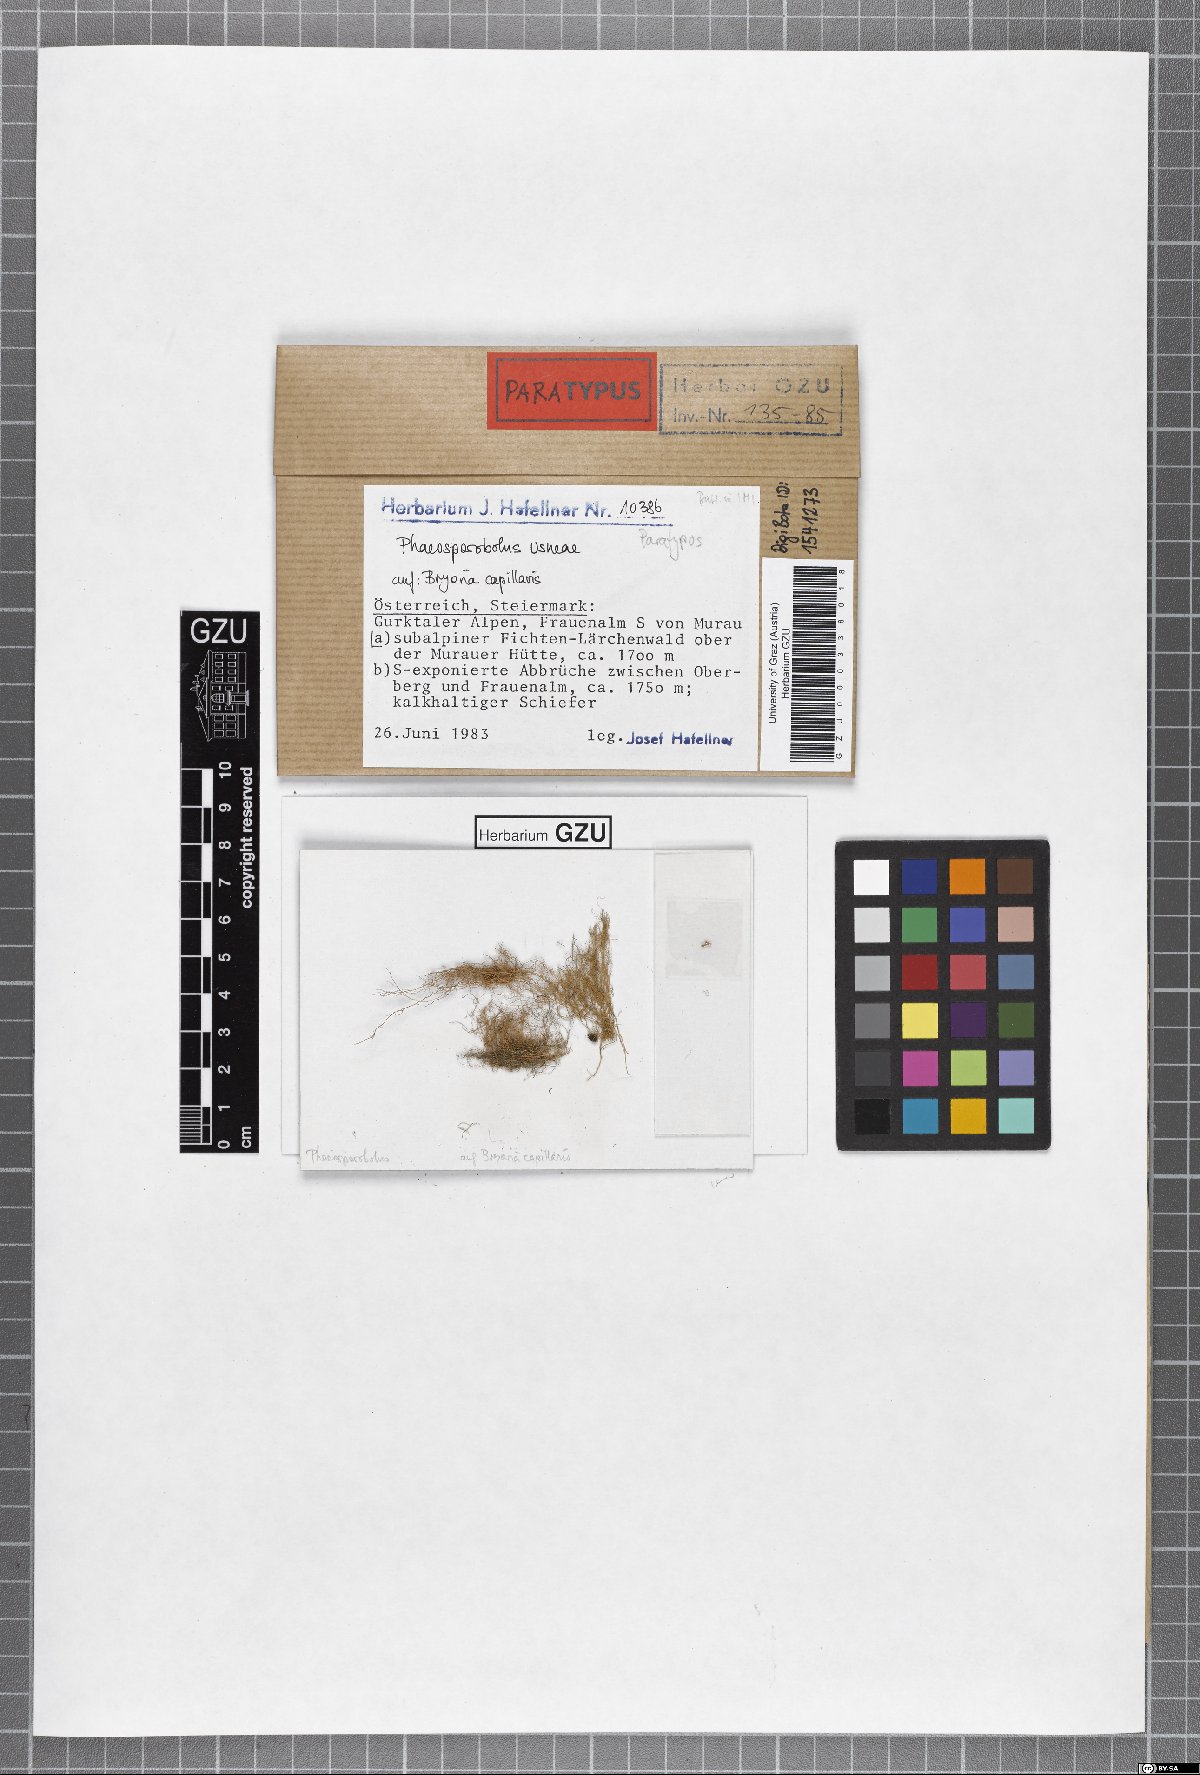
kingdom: Fungi
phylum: Ascomycota
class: Arthoniomycetes
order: Lichenostigmatales
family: Phaeococcomycetaceae
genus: Phaeosporobolus
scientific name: Phaeosporobolus usneae
